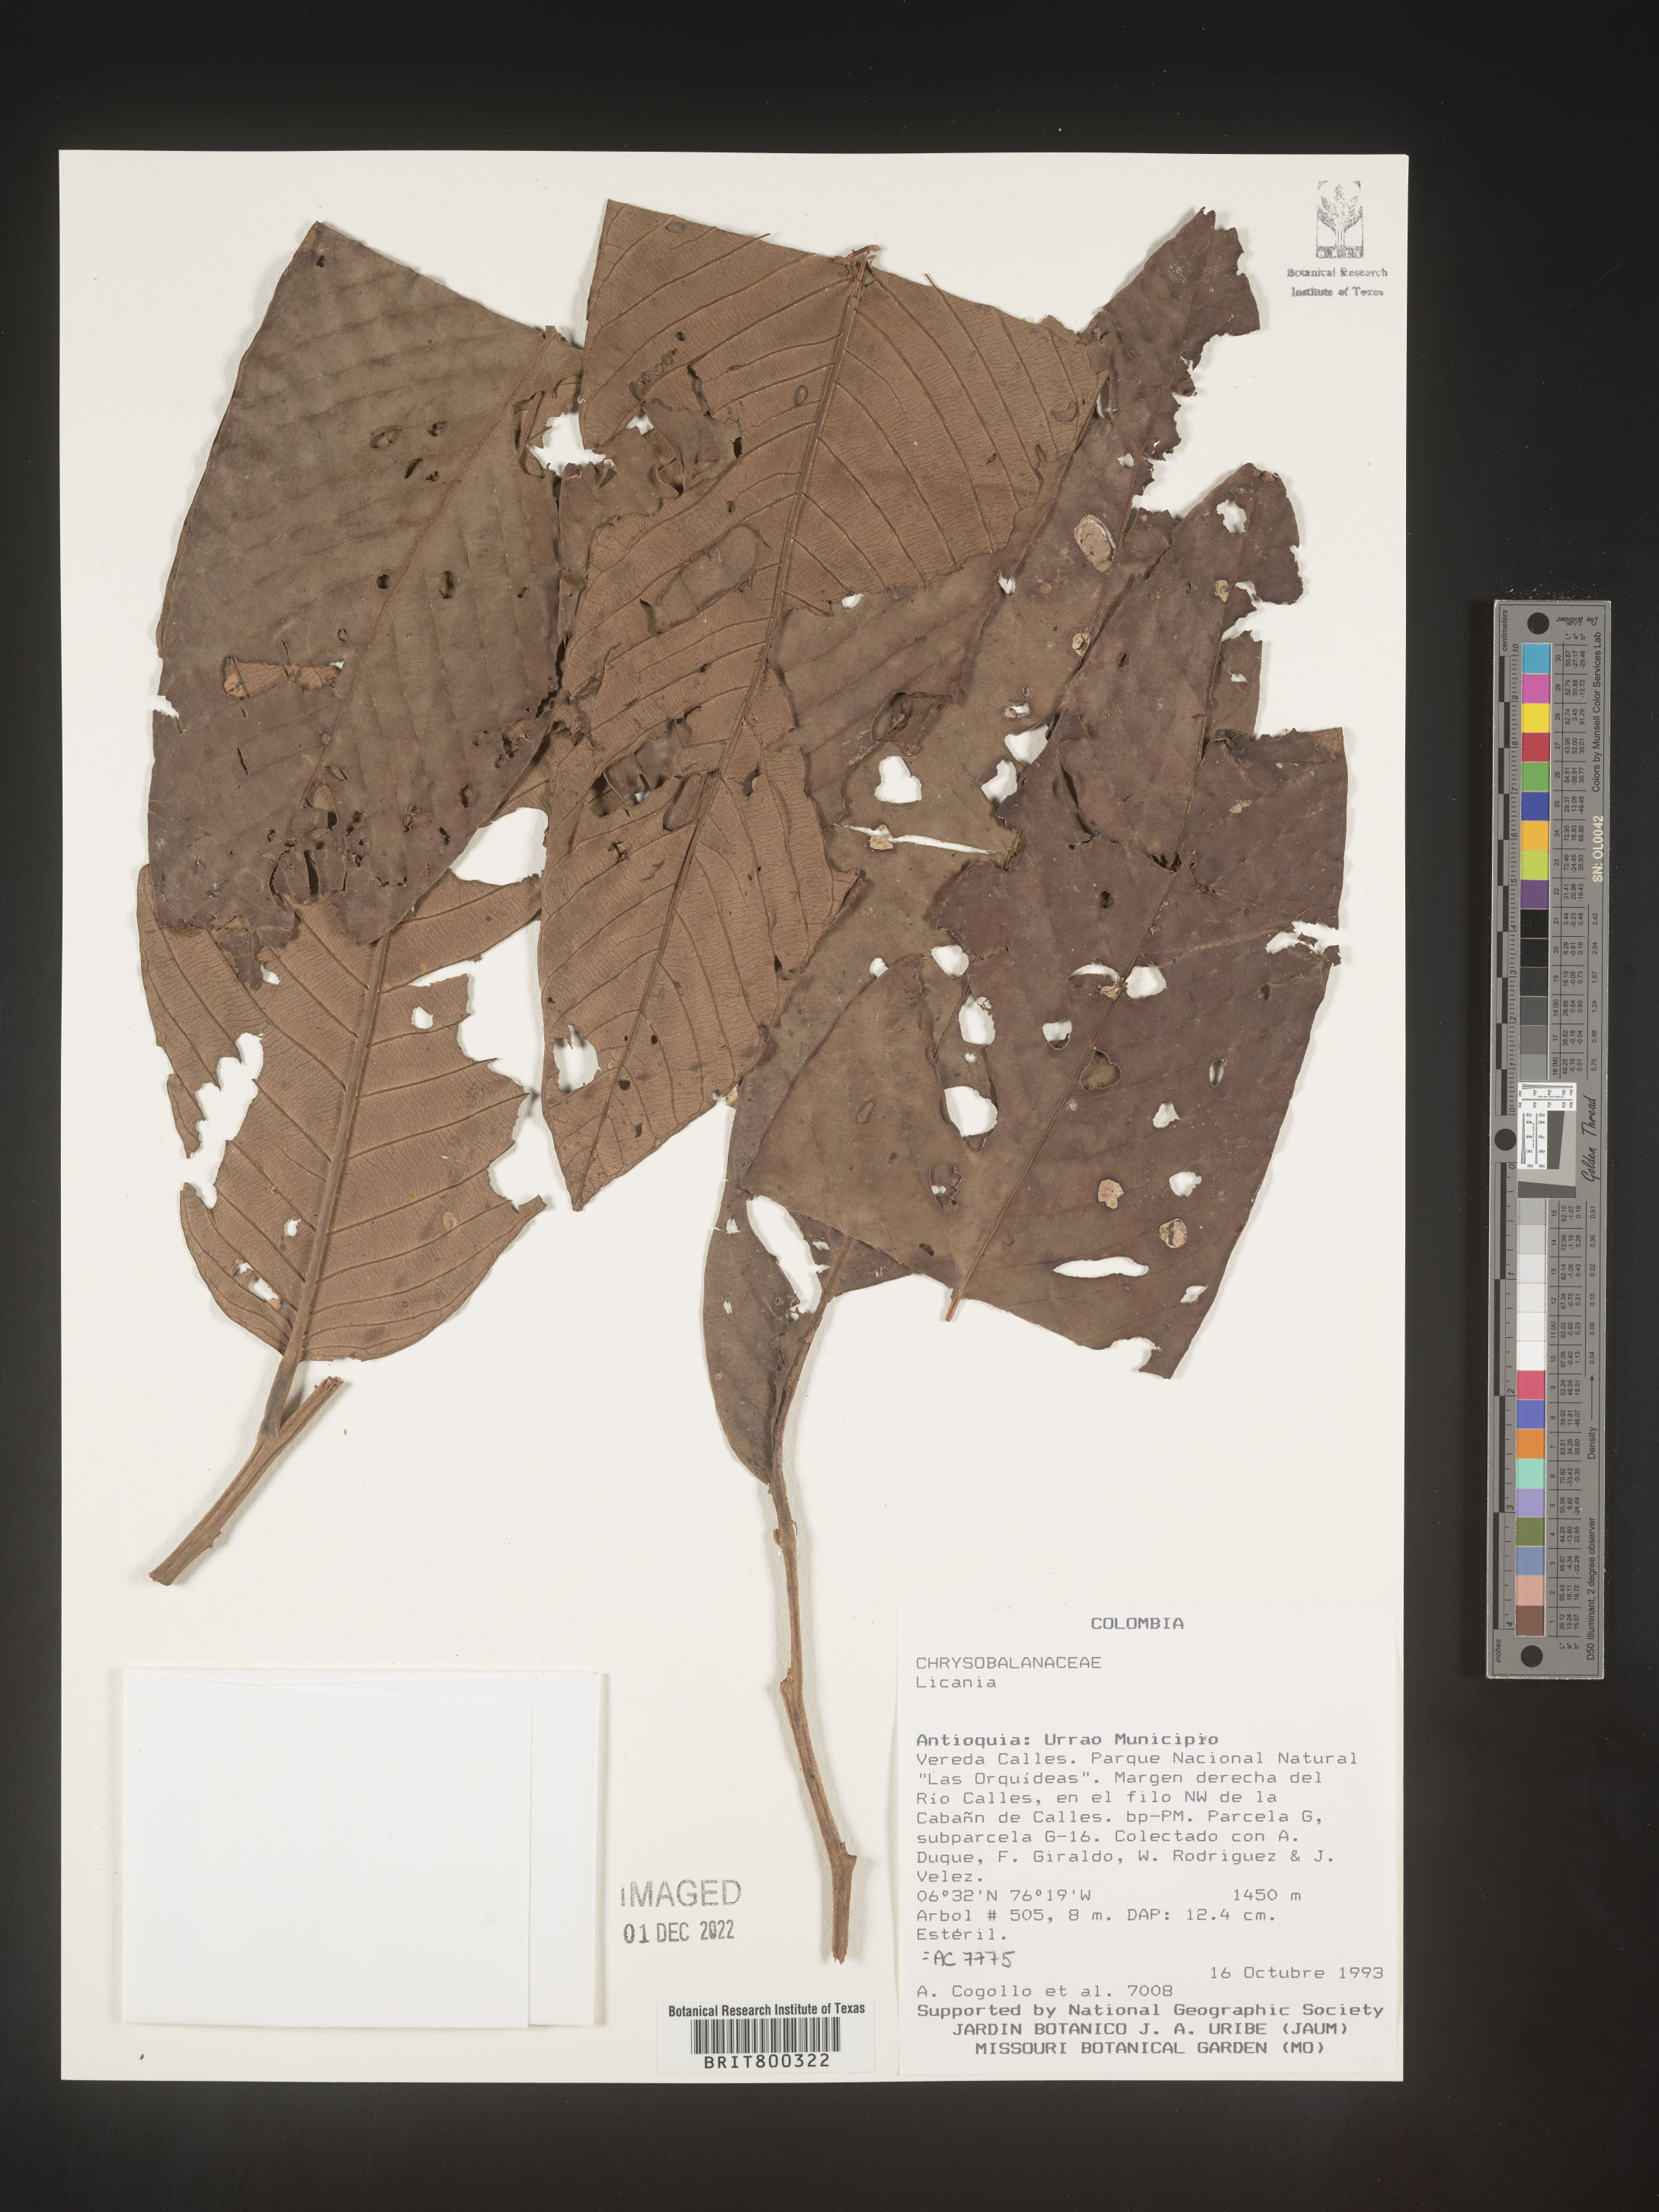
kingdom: Plantae
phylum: Tracheophyta
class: Magnoliopsida
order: Malpighiales
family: Chrysobalanaceae
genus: Licania
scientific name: Licania
